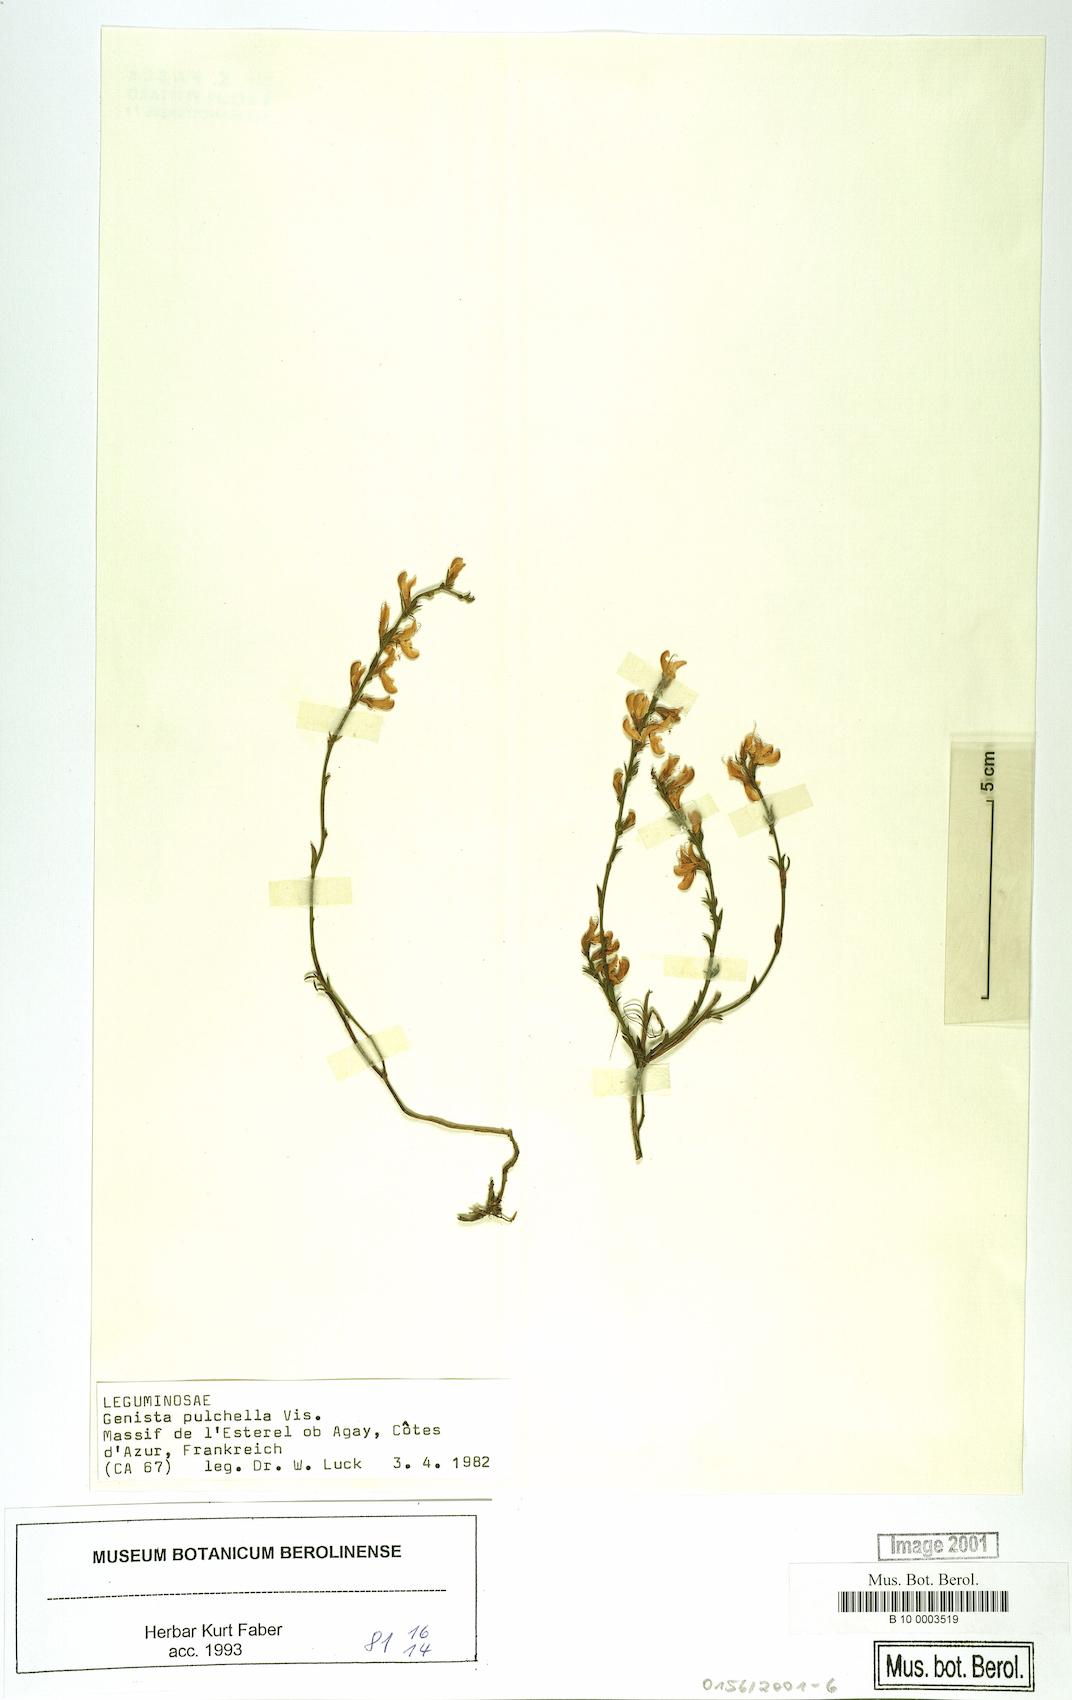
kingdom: Plantae
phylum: Tracheophyta
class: Magnoliopsida
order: Fabales
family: Fabaceae
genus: Genista
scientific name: Genista pulchella
